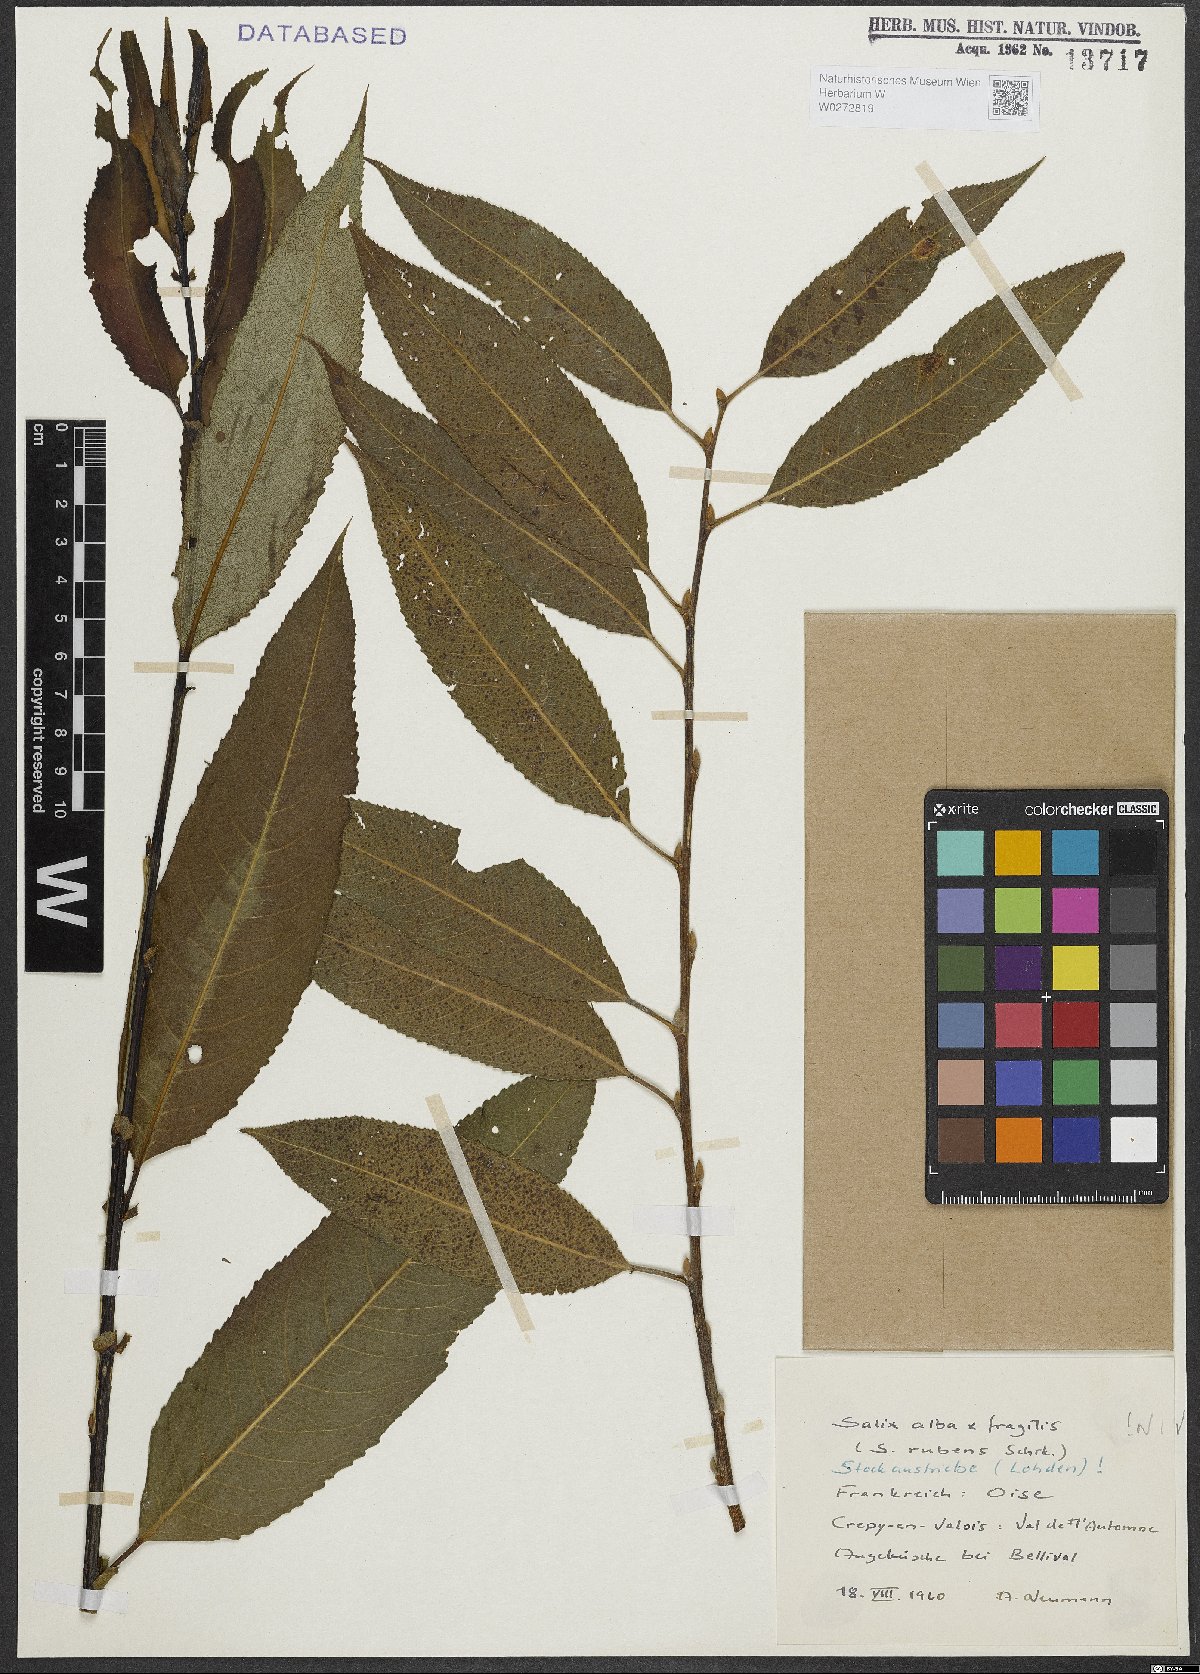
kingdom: Plantae
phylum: Tracheophyta
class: Magnoliopsida
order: Malpighiales
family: Salicaceae
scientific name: Salicaceae
